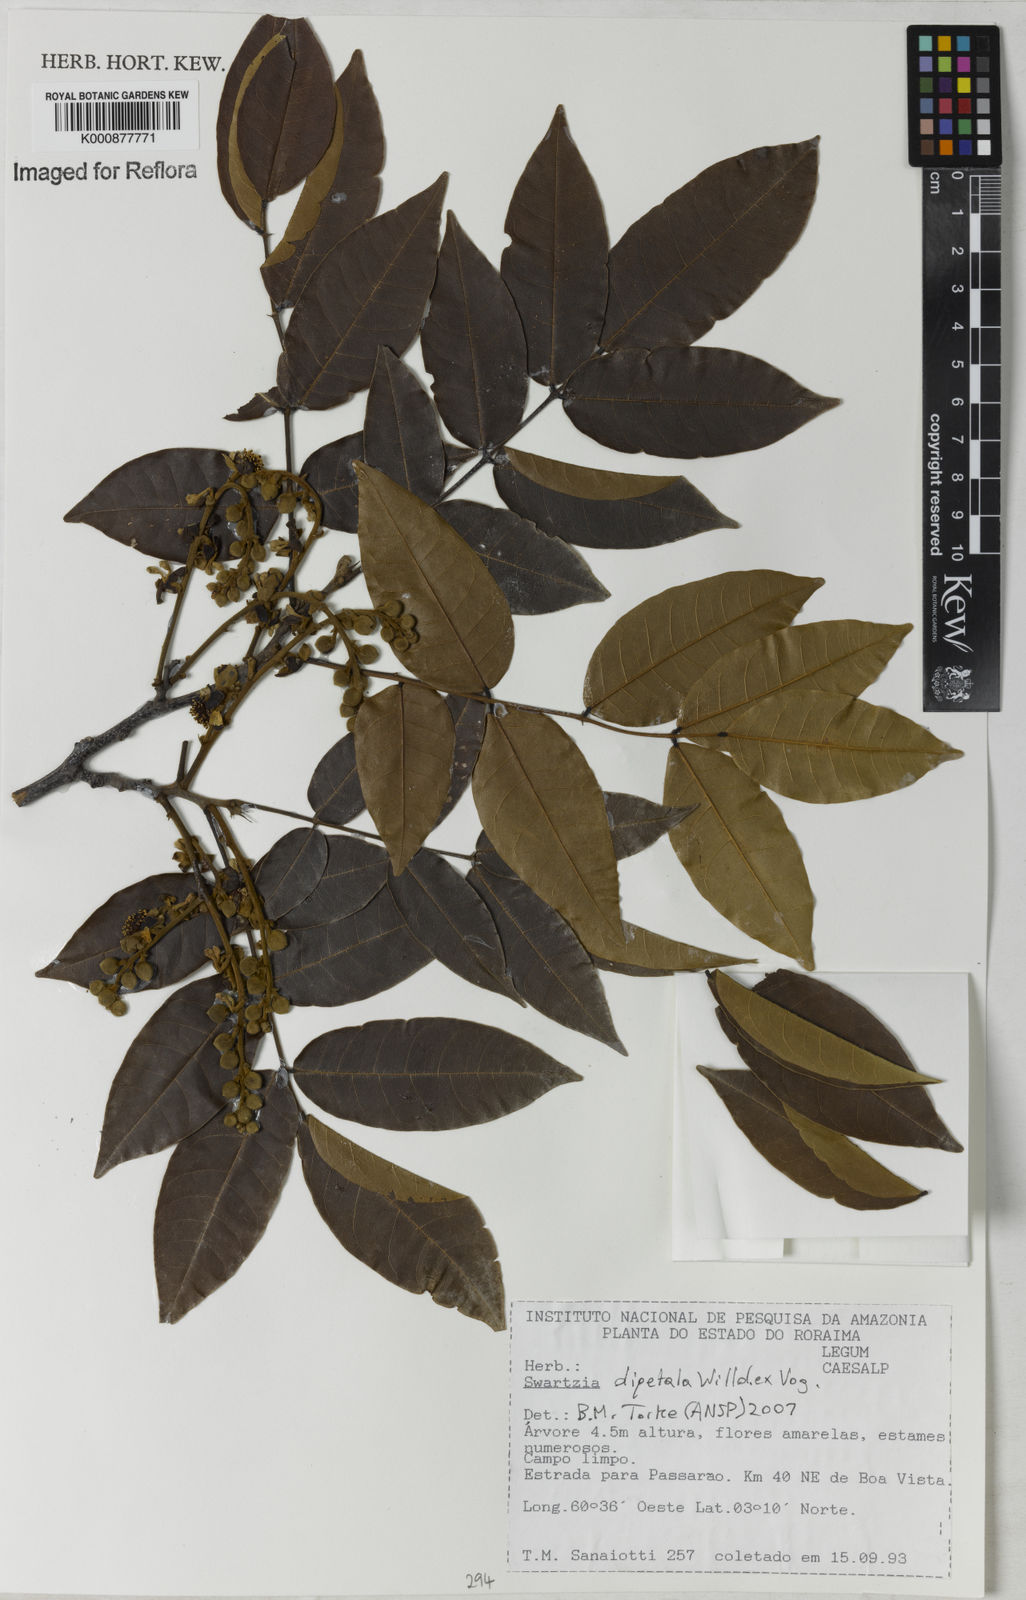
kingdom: Plantae
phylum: Tracheophyta
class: Magnoliopsida
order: Fabales
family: Fabaceae
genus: Swartzia
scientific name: Swartzia dipetala
